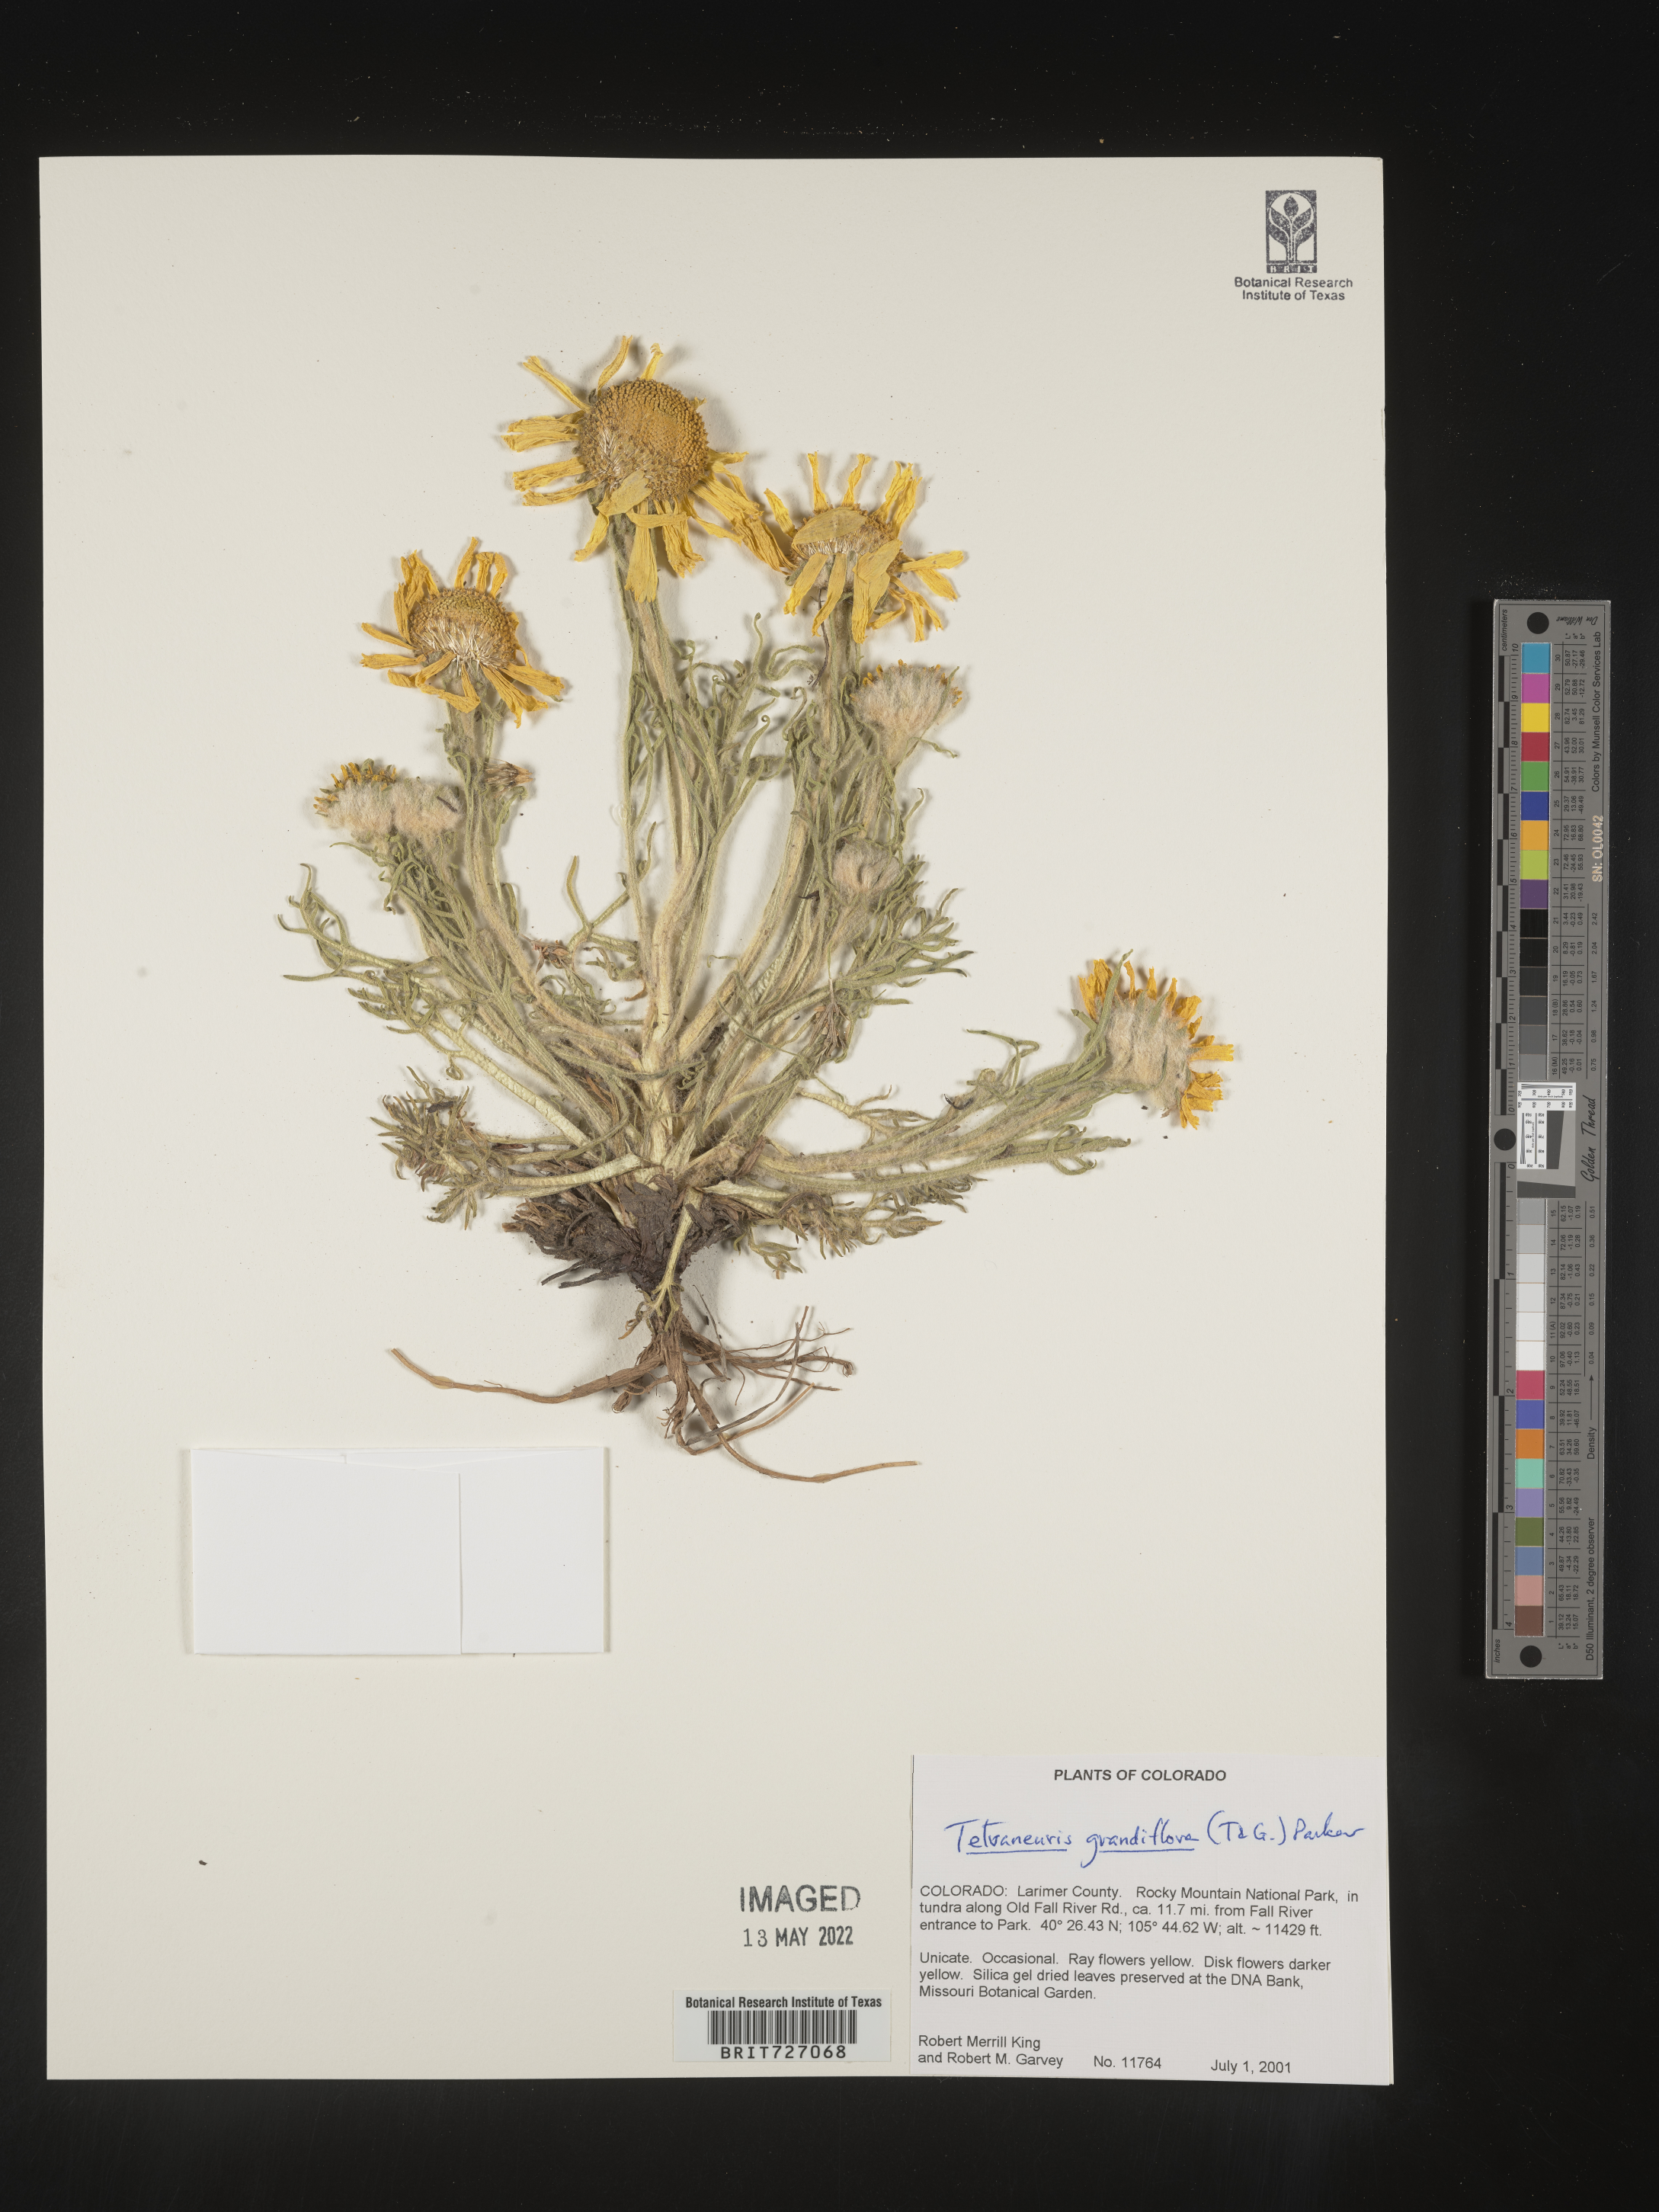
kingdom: Plantae
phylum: Tracheophyta
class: Magnoliopsida
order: Asterales
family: Asteraceae
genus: Hymenoxys
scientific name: Hymenoxys grandiflora
